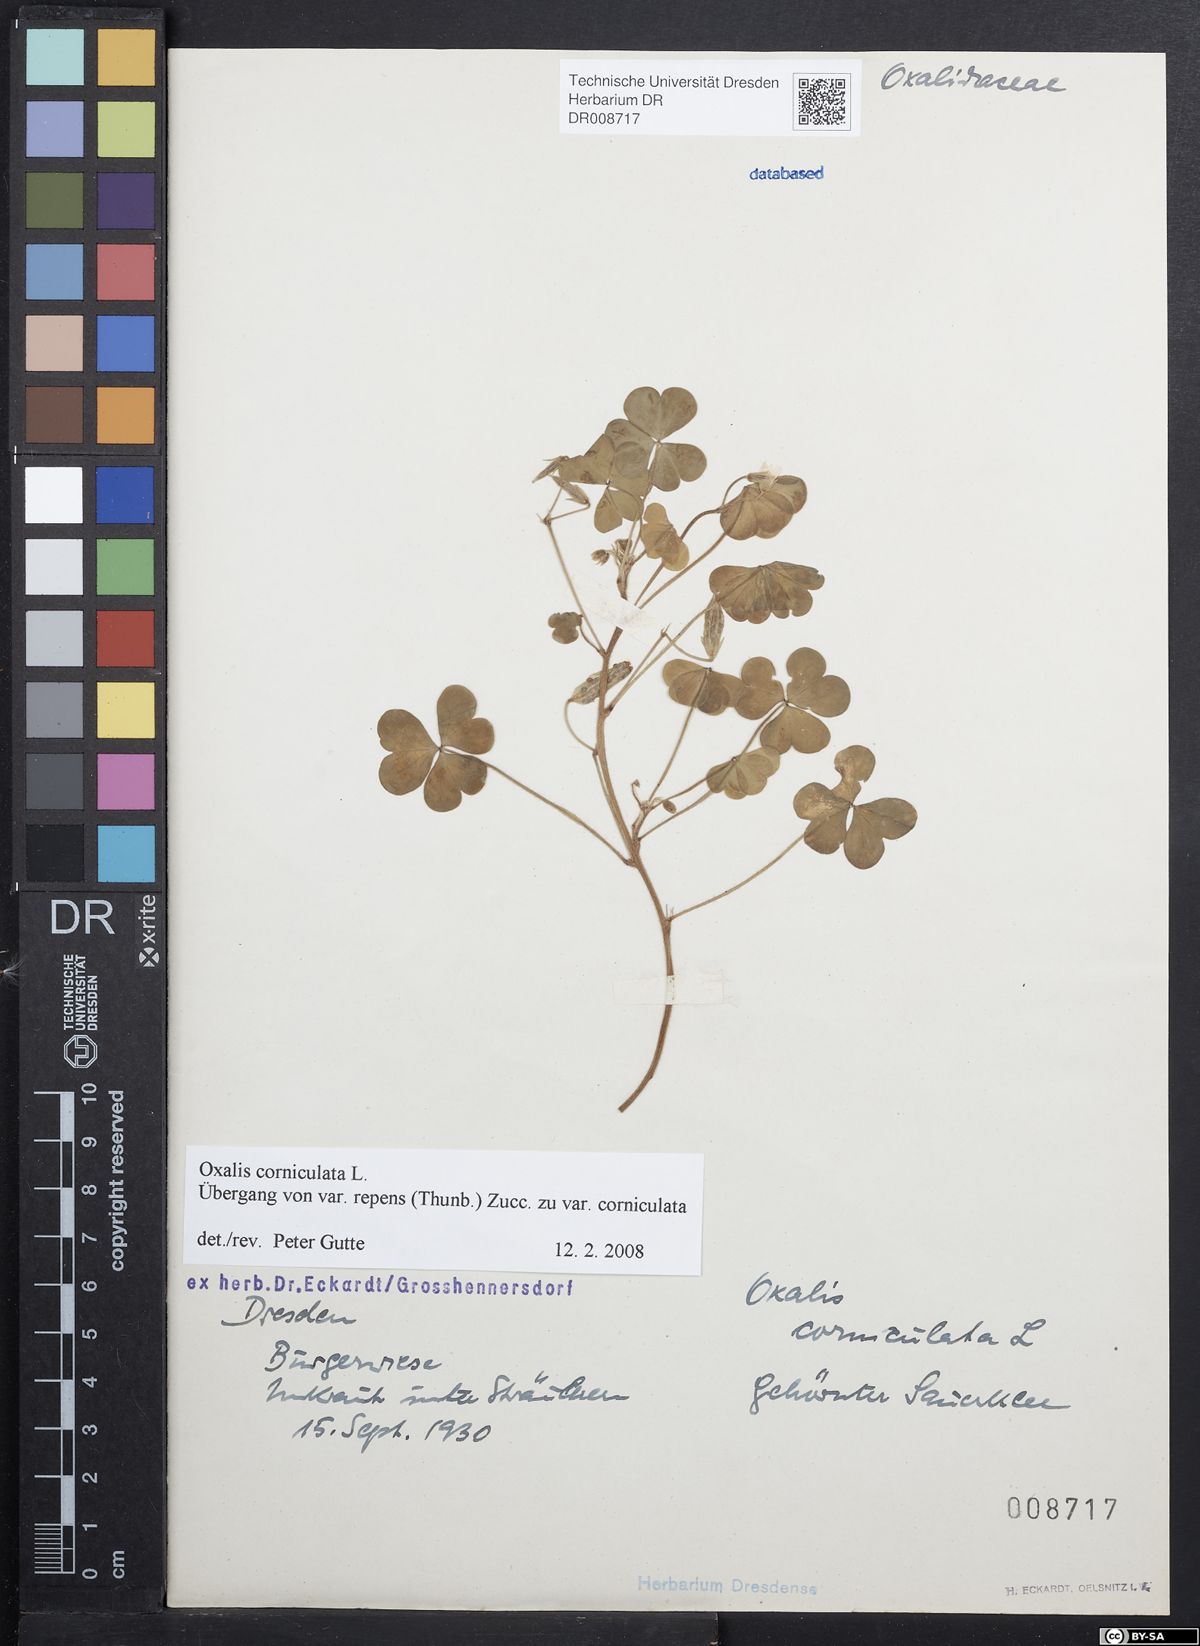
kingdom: Plantae
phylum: Tracheophyta
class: Magnoliopsida
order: Oxalidales
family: Oxalidaceae
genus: Oxalis
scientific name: Oxalis corniculata
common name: Procumbent yellow-sorrel
